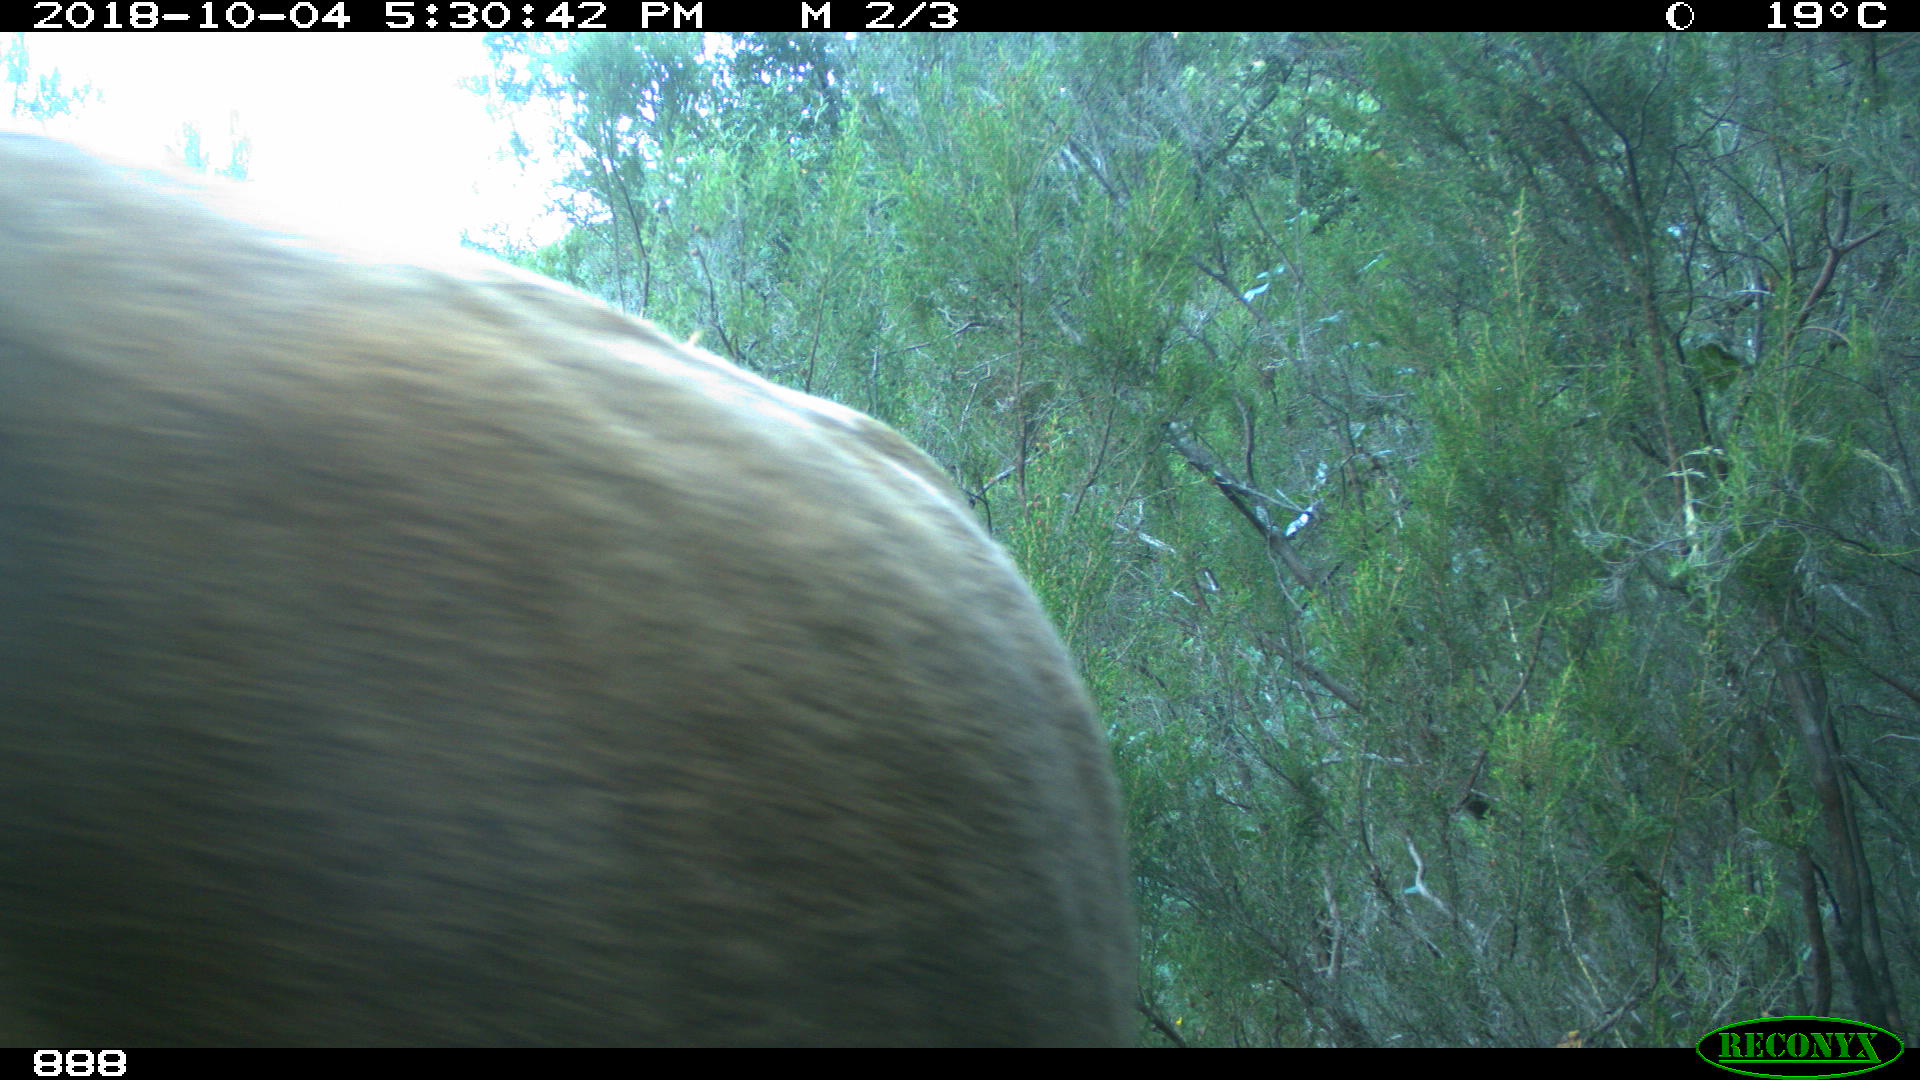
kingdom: Animalia
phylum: Chordata
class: Mammalia
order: Artiodactyla
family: Bovidae
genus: Bos
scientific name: Bos taurus
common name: Domesticated cattle
